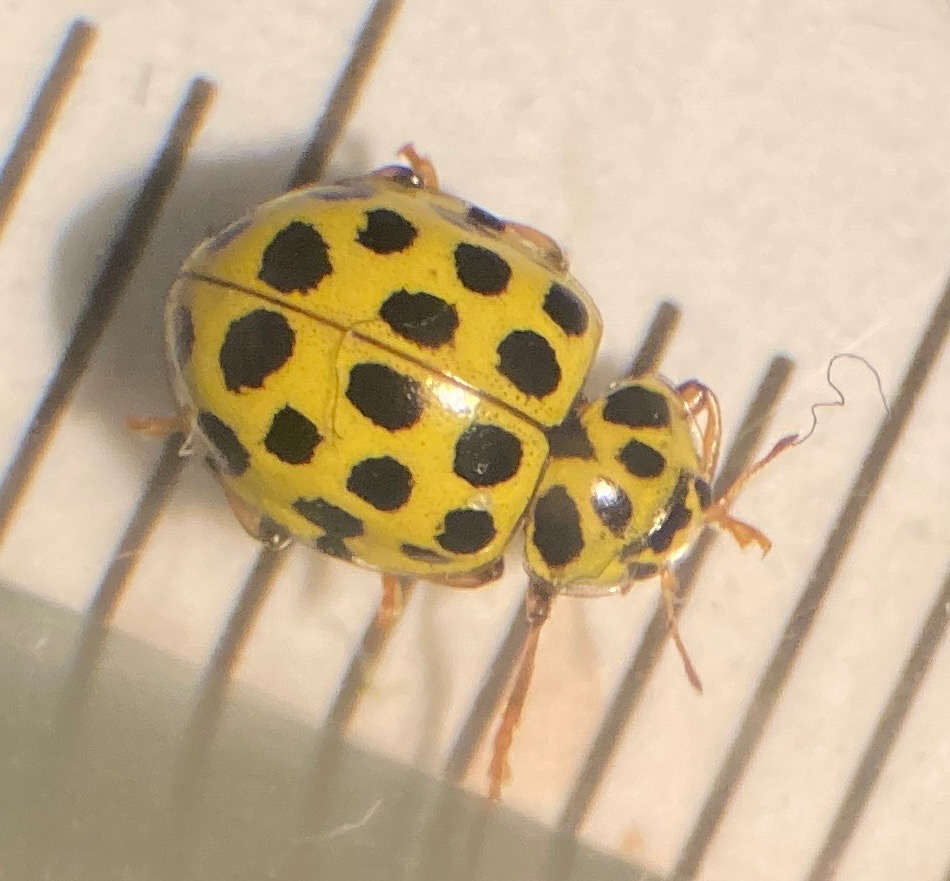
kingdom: Animalia
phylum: Arthropoda
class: Insecta
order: Coleoptera
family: Coccinellidae
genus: Psyllobora
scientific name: Psyllobora vigintiduopunctata
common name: Toogtyveplettet mariehøne
